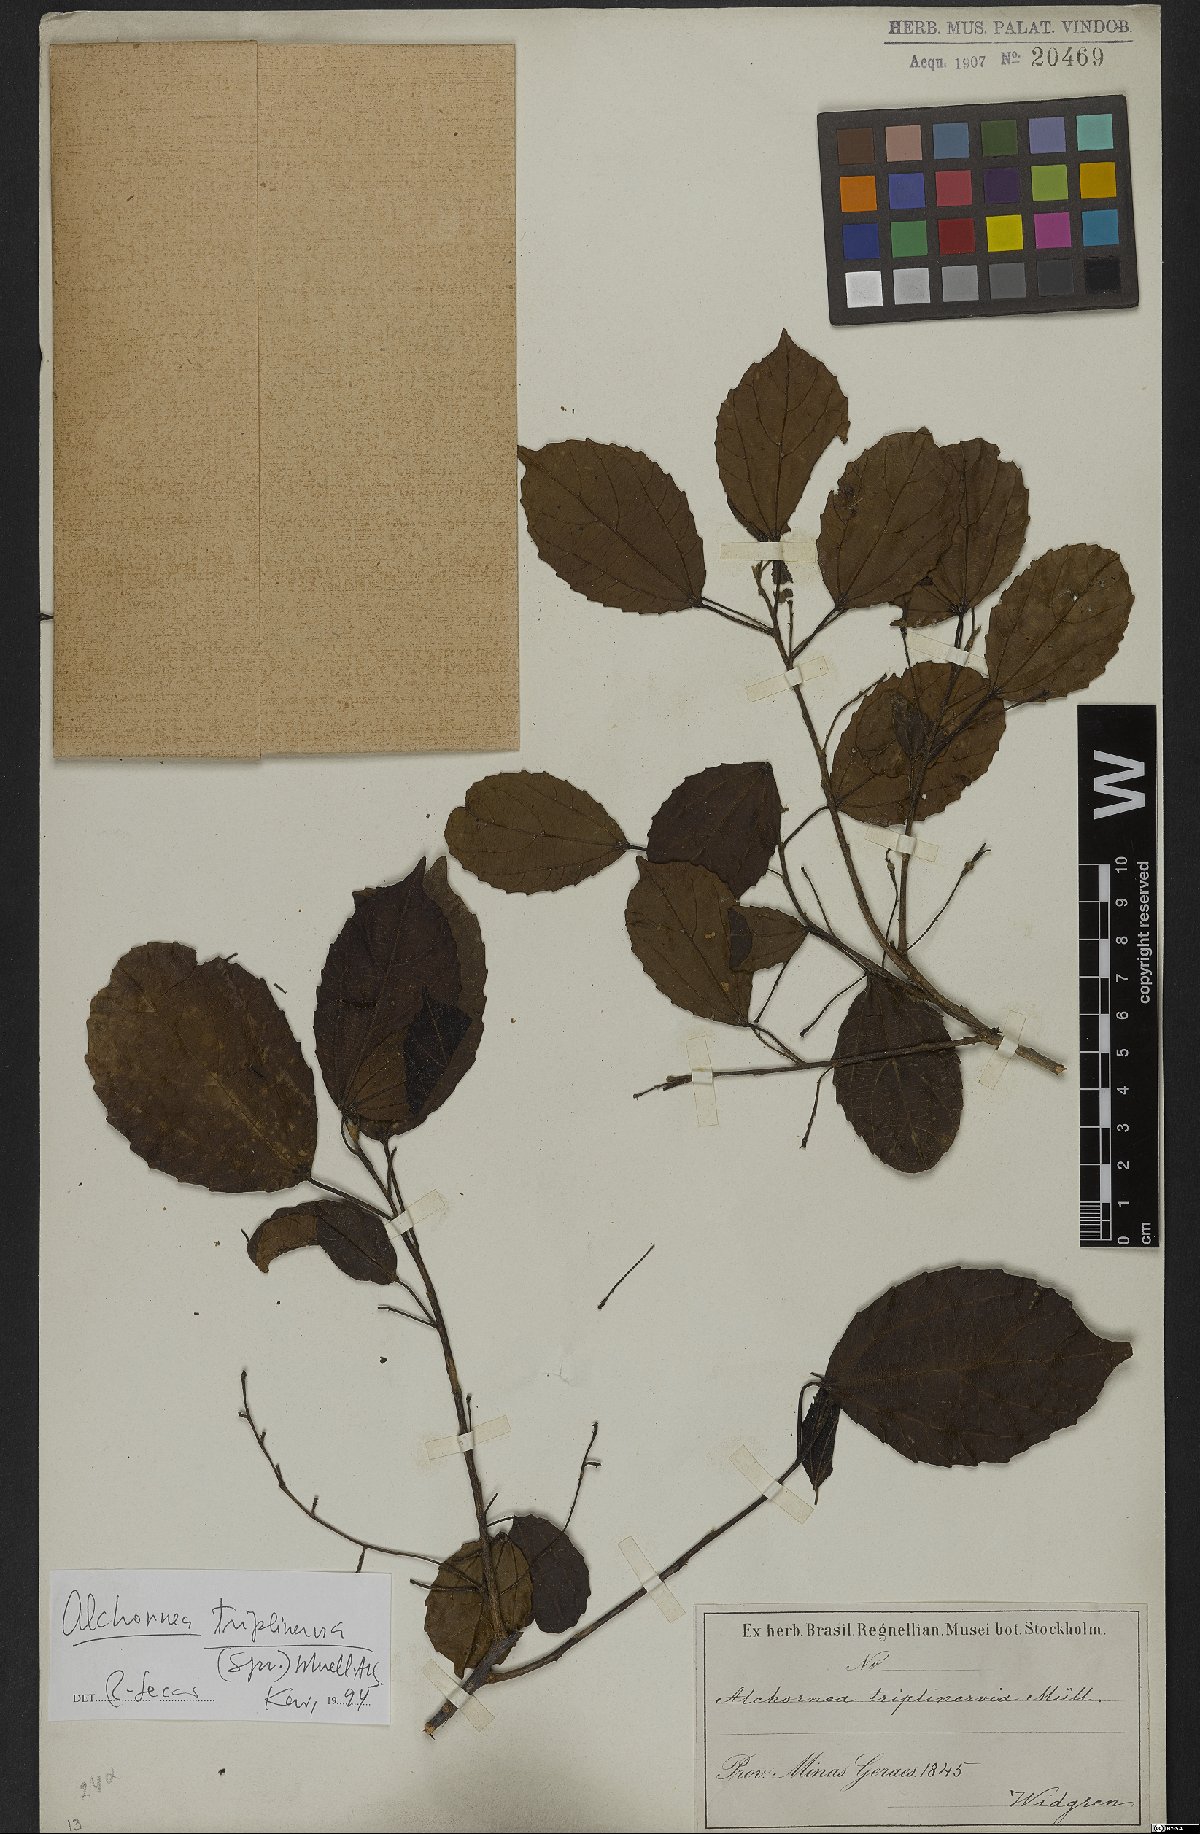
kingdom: Plantae
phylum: Tracheophyta
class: Magnoliopsida
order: Malpighiales
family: Euphorbiaceae
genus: Alchornea
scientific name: Alchornea triplinervia
